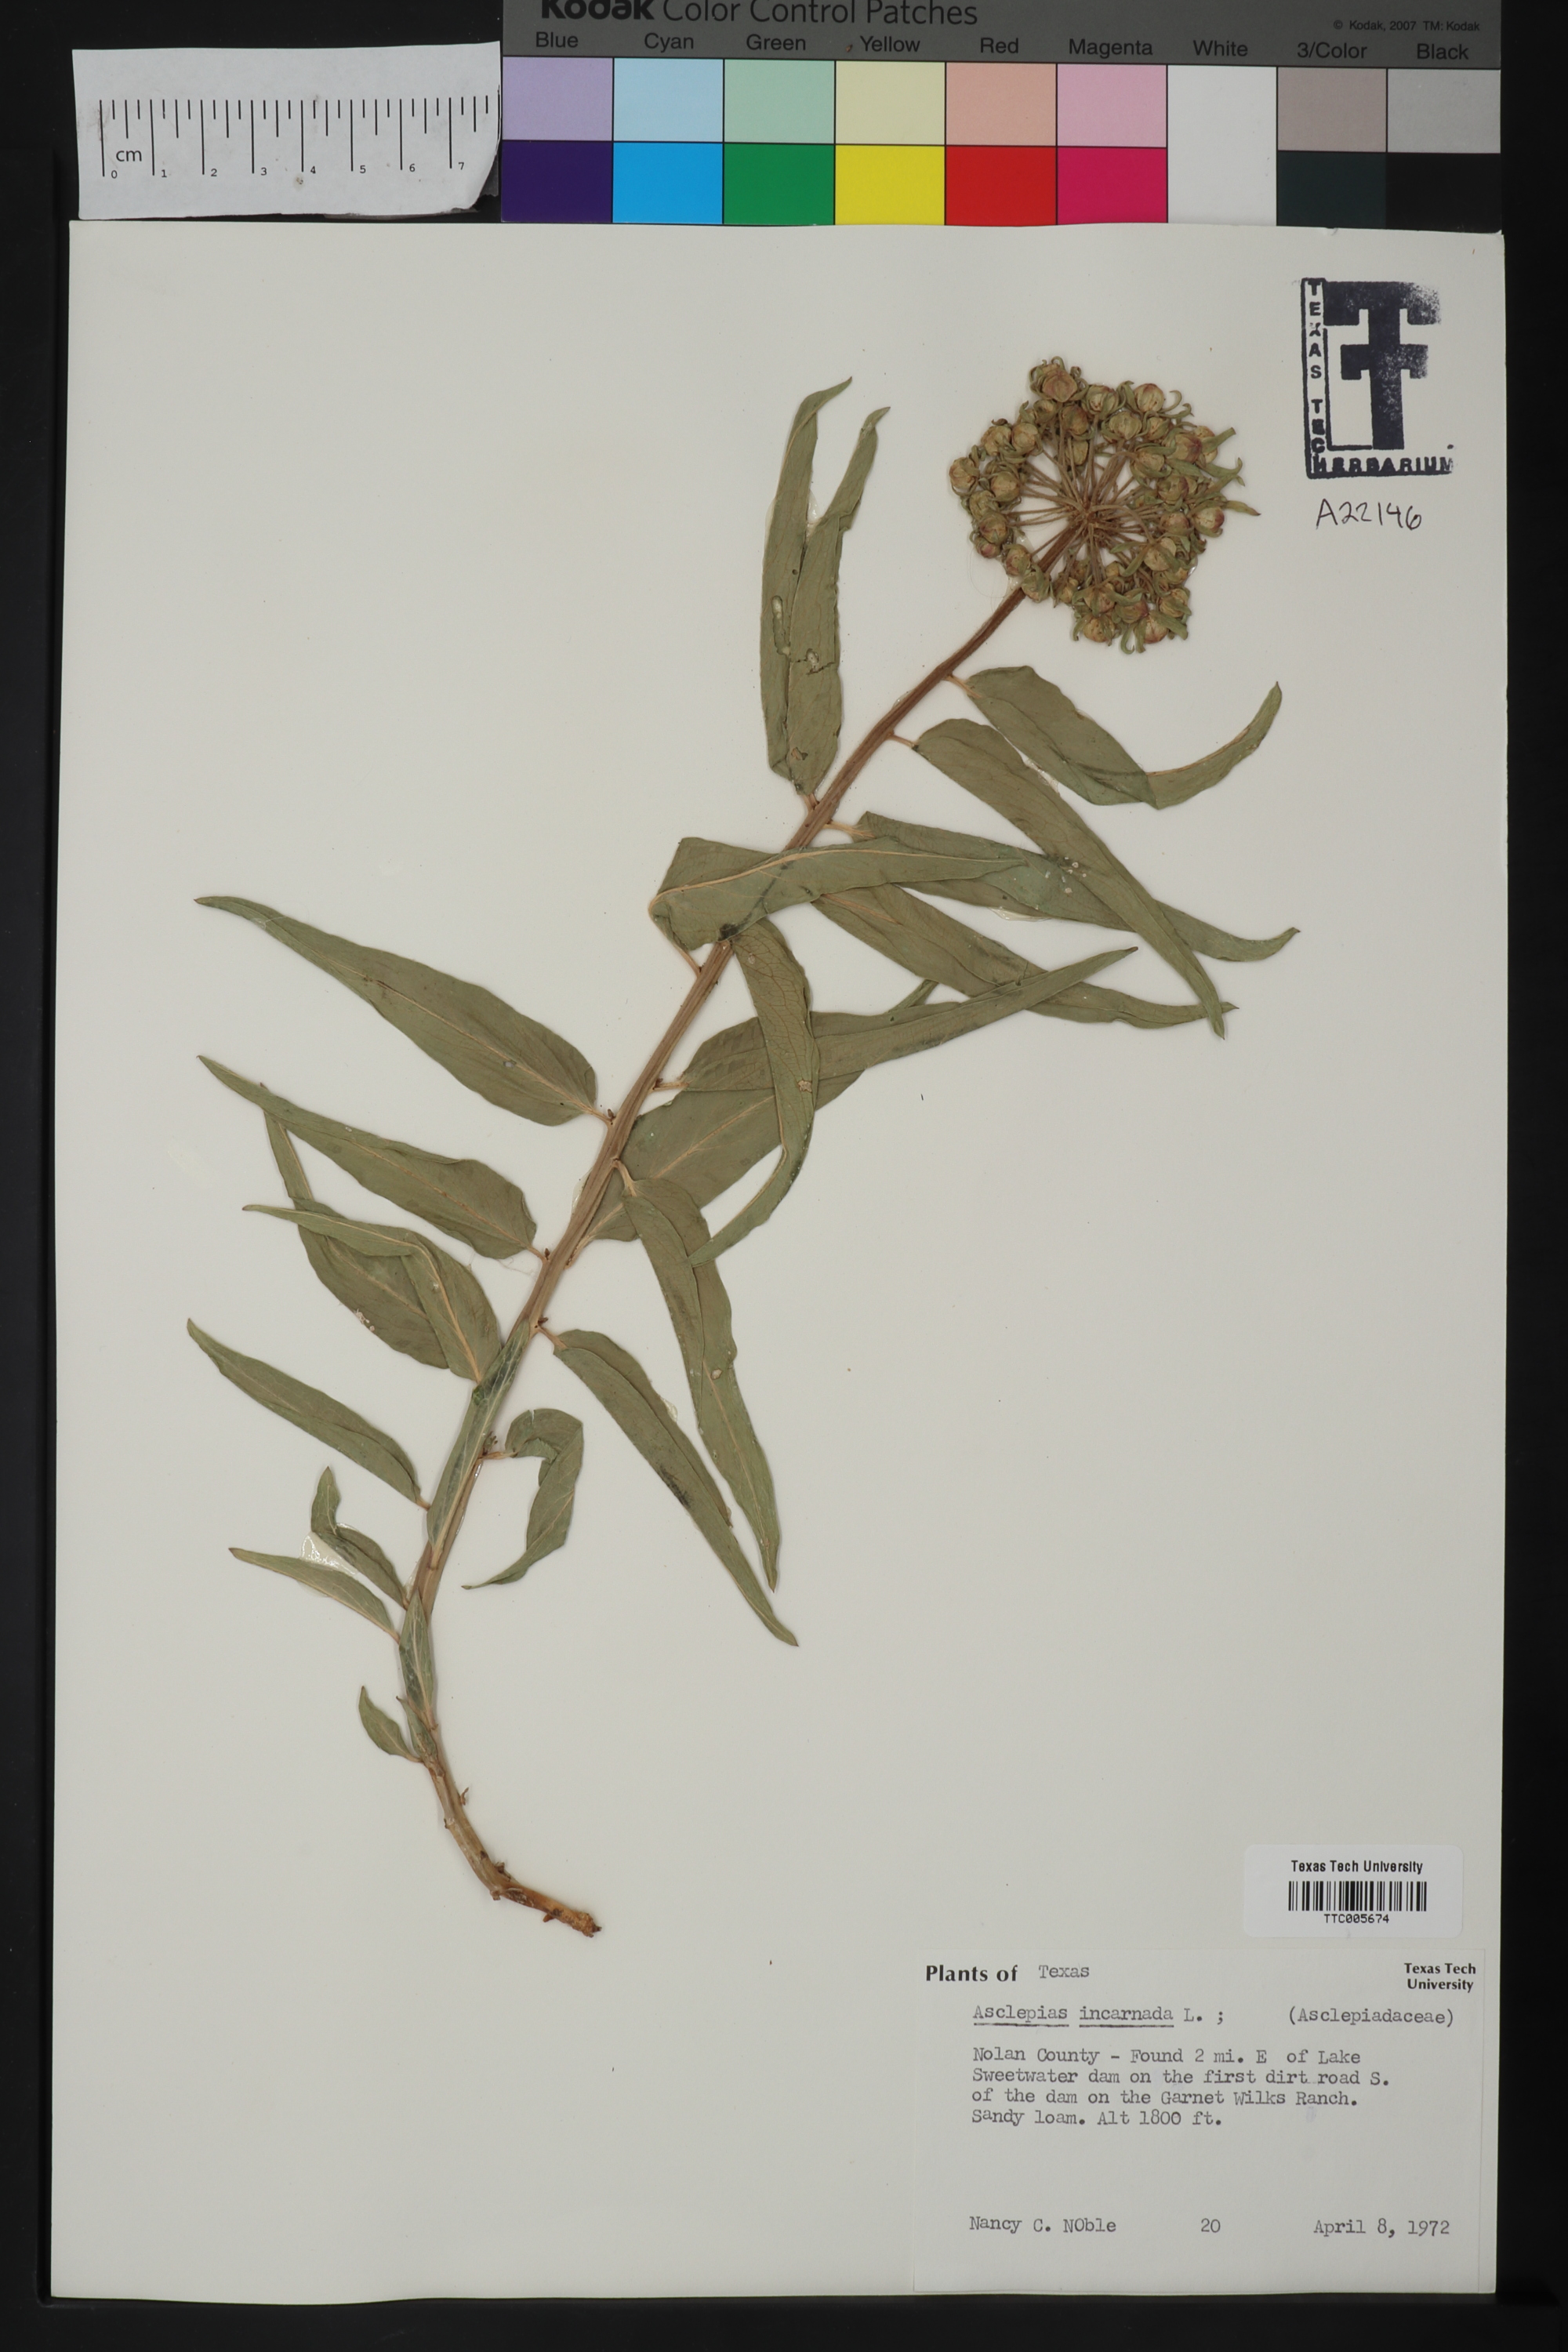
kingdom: Plantae
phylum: Tracheophyta
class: Magnoliopsida
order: Gentianales
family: Apocynaceae
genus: Asclepias
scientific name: Asclepias incarnata
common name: Swamp milkweed
